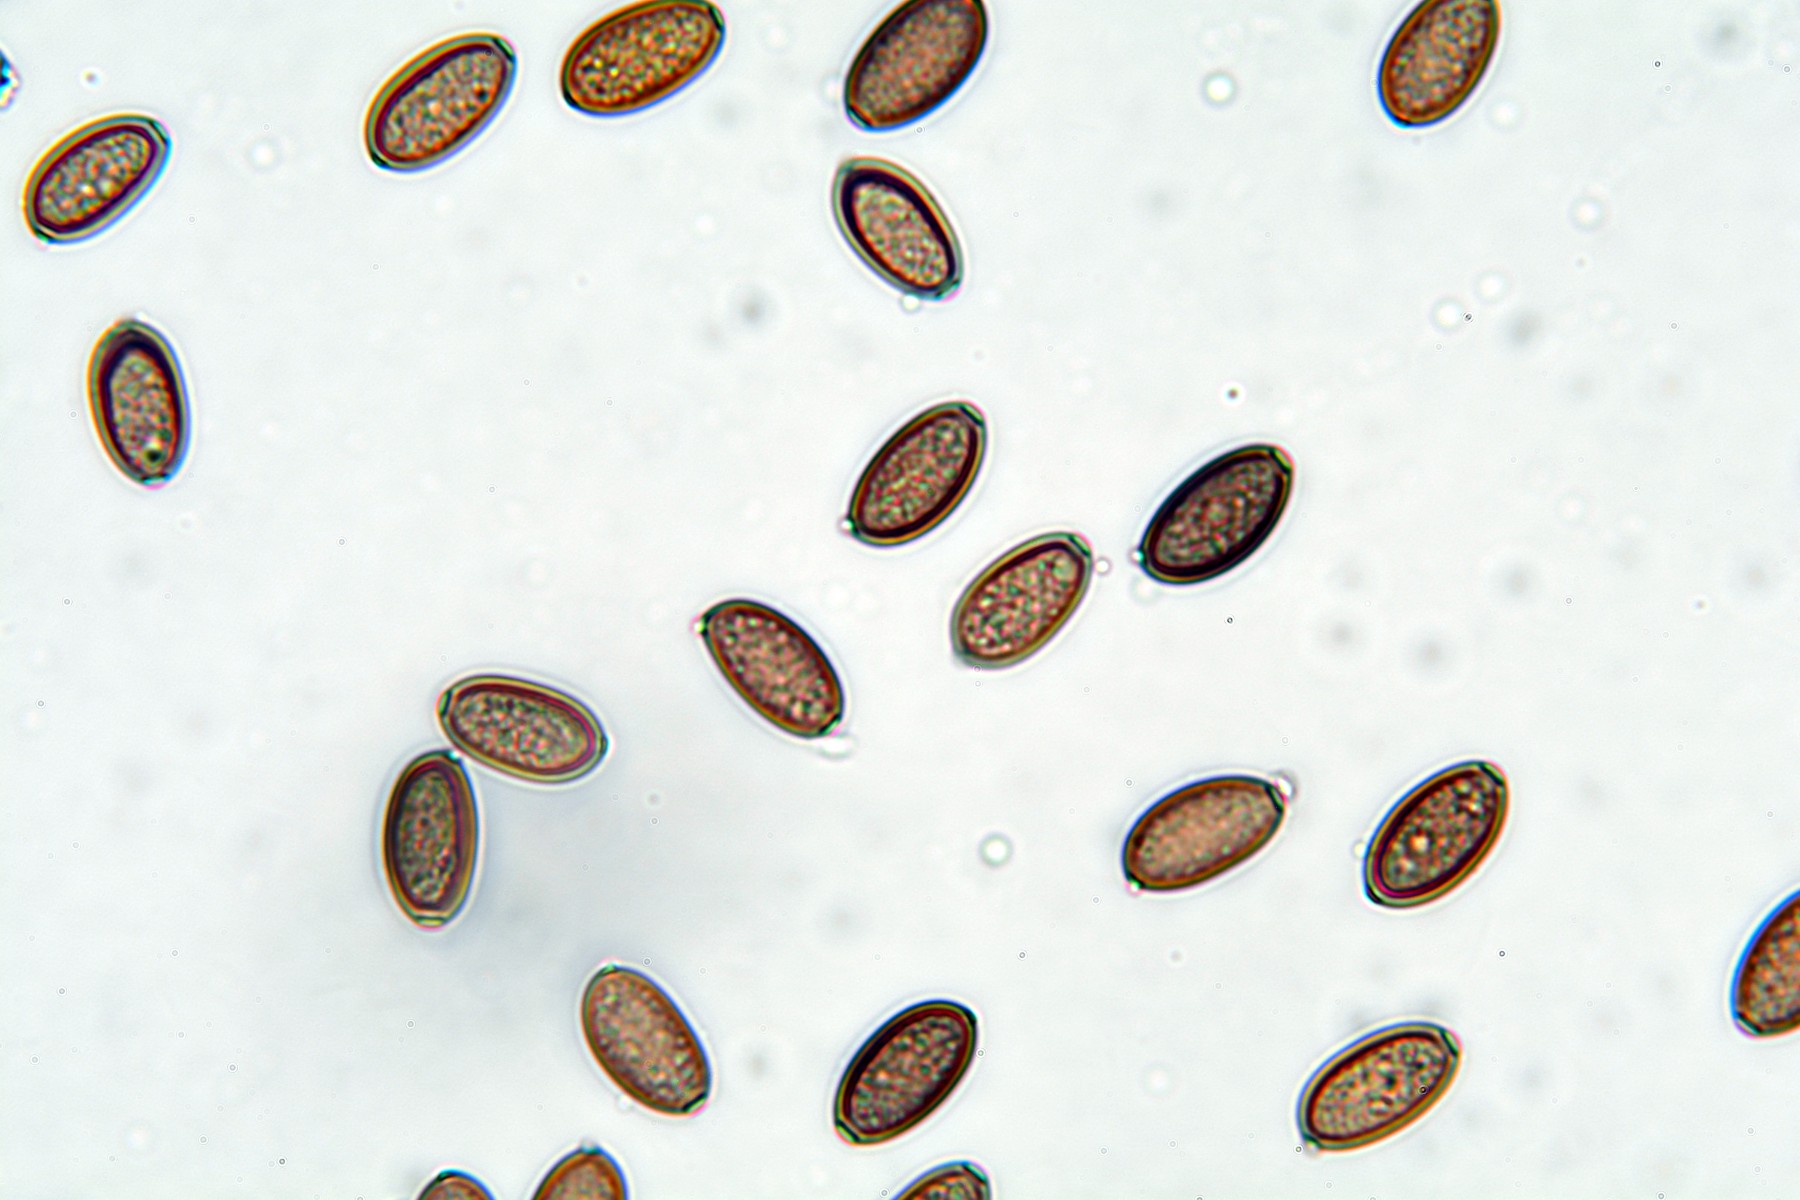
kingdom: Fungi
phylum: Basidiomycota
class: Agaricomycetes
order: Agaricales
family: Strophariaceae
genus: Protostropharia
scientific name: Protostropharia semiglobata
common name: halvkugleformet bredblad
